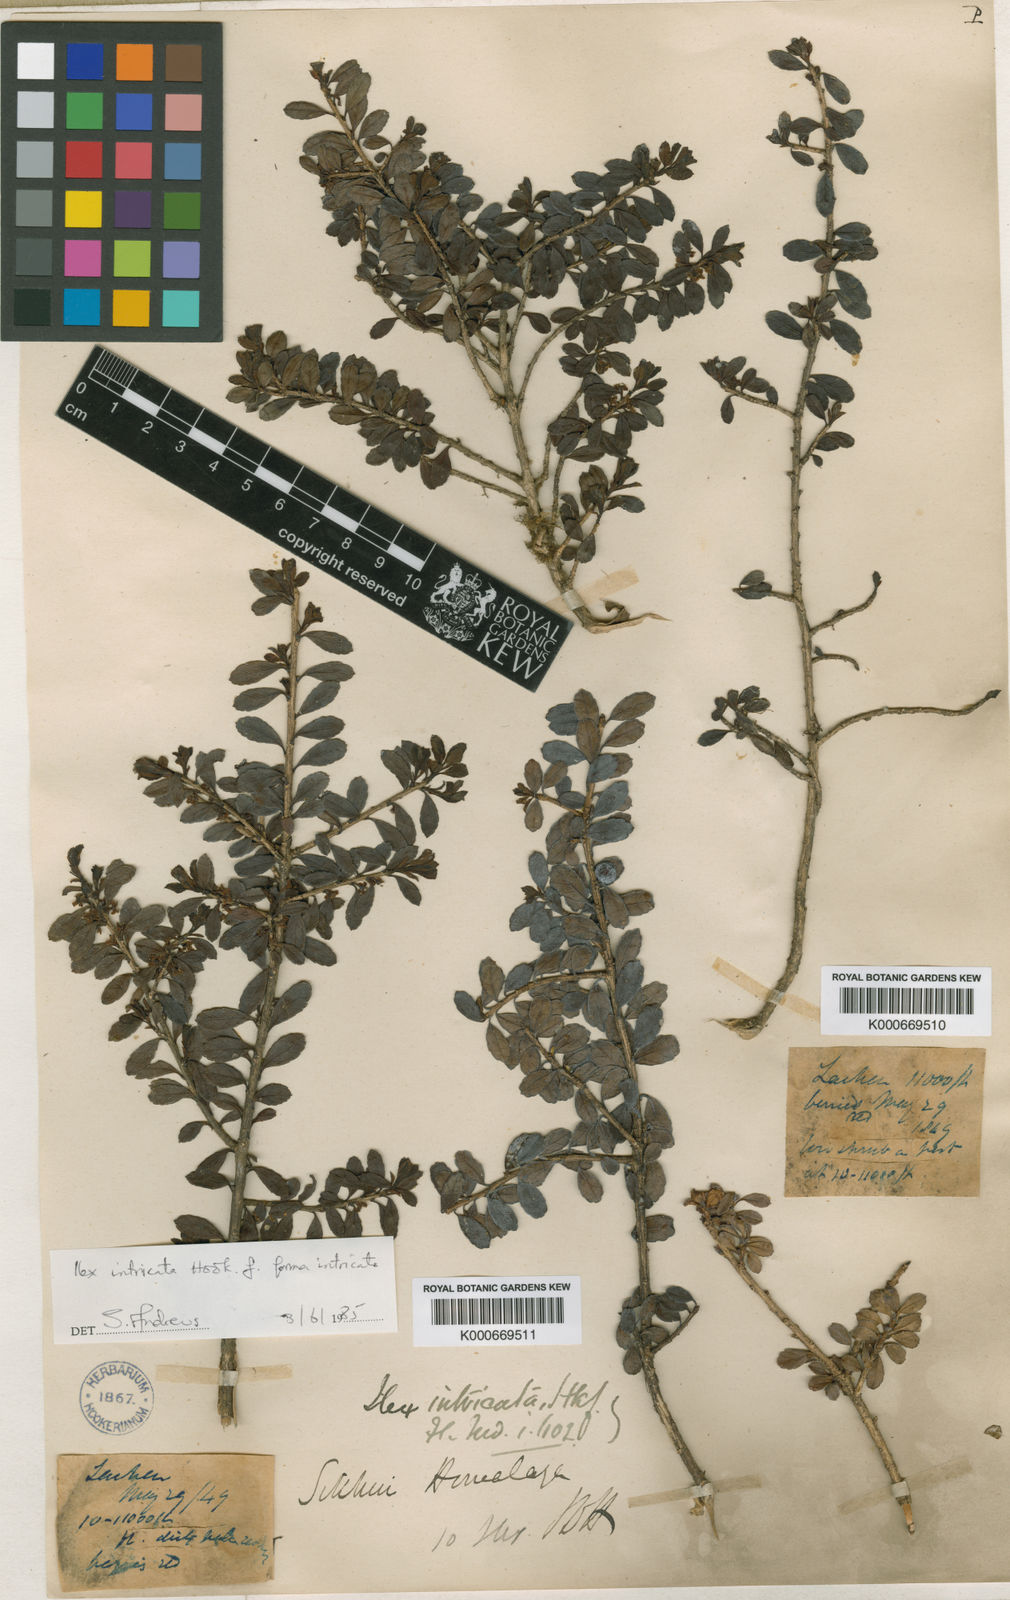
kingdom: Plantae
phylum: Tracheophyta
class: Magnoliopsida
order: Aquifoliales
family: Aquifoliaceae
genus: Ilex
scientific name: Ilex intricata
